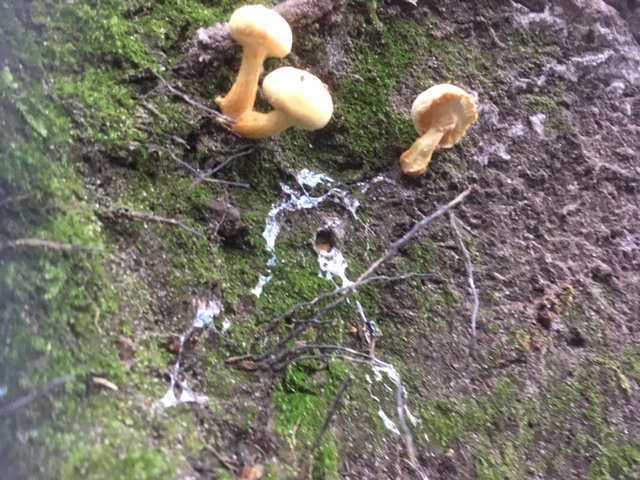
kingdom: Fungi
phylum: Basidiomycota
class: Agaricomycetes
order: Agaricales
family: Hymenogastraceae
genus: Flammula
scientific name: Flammula alnicola
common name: elle-skælhat
